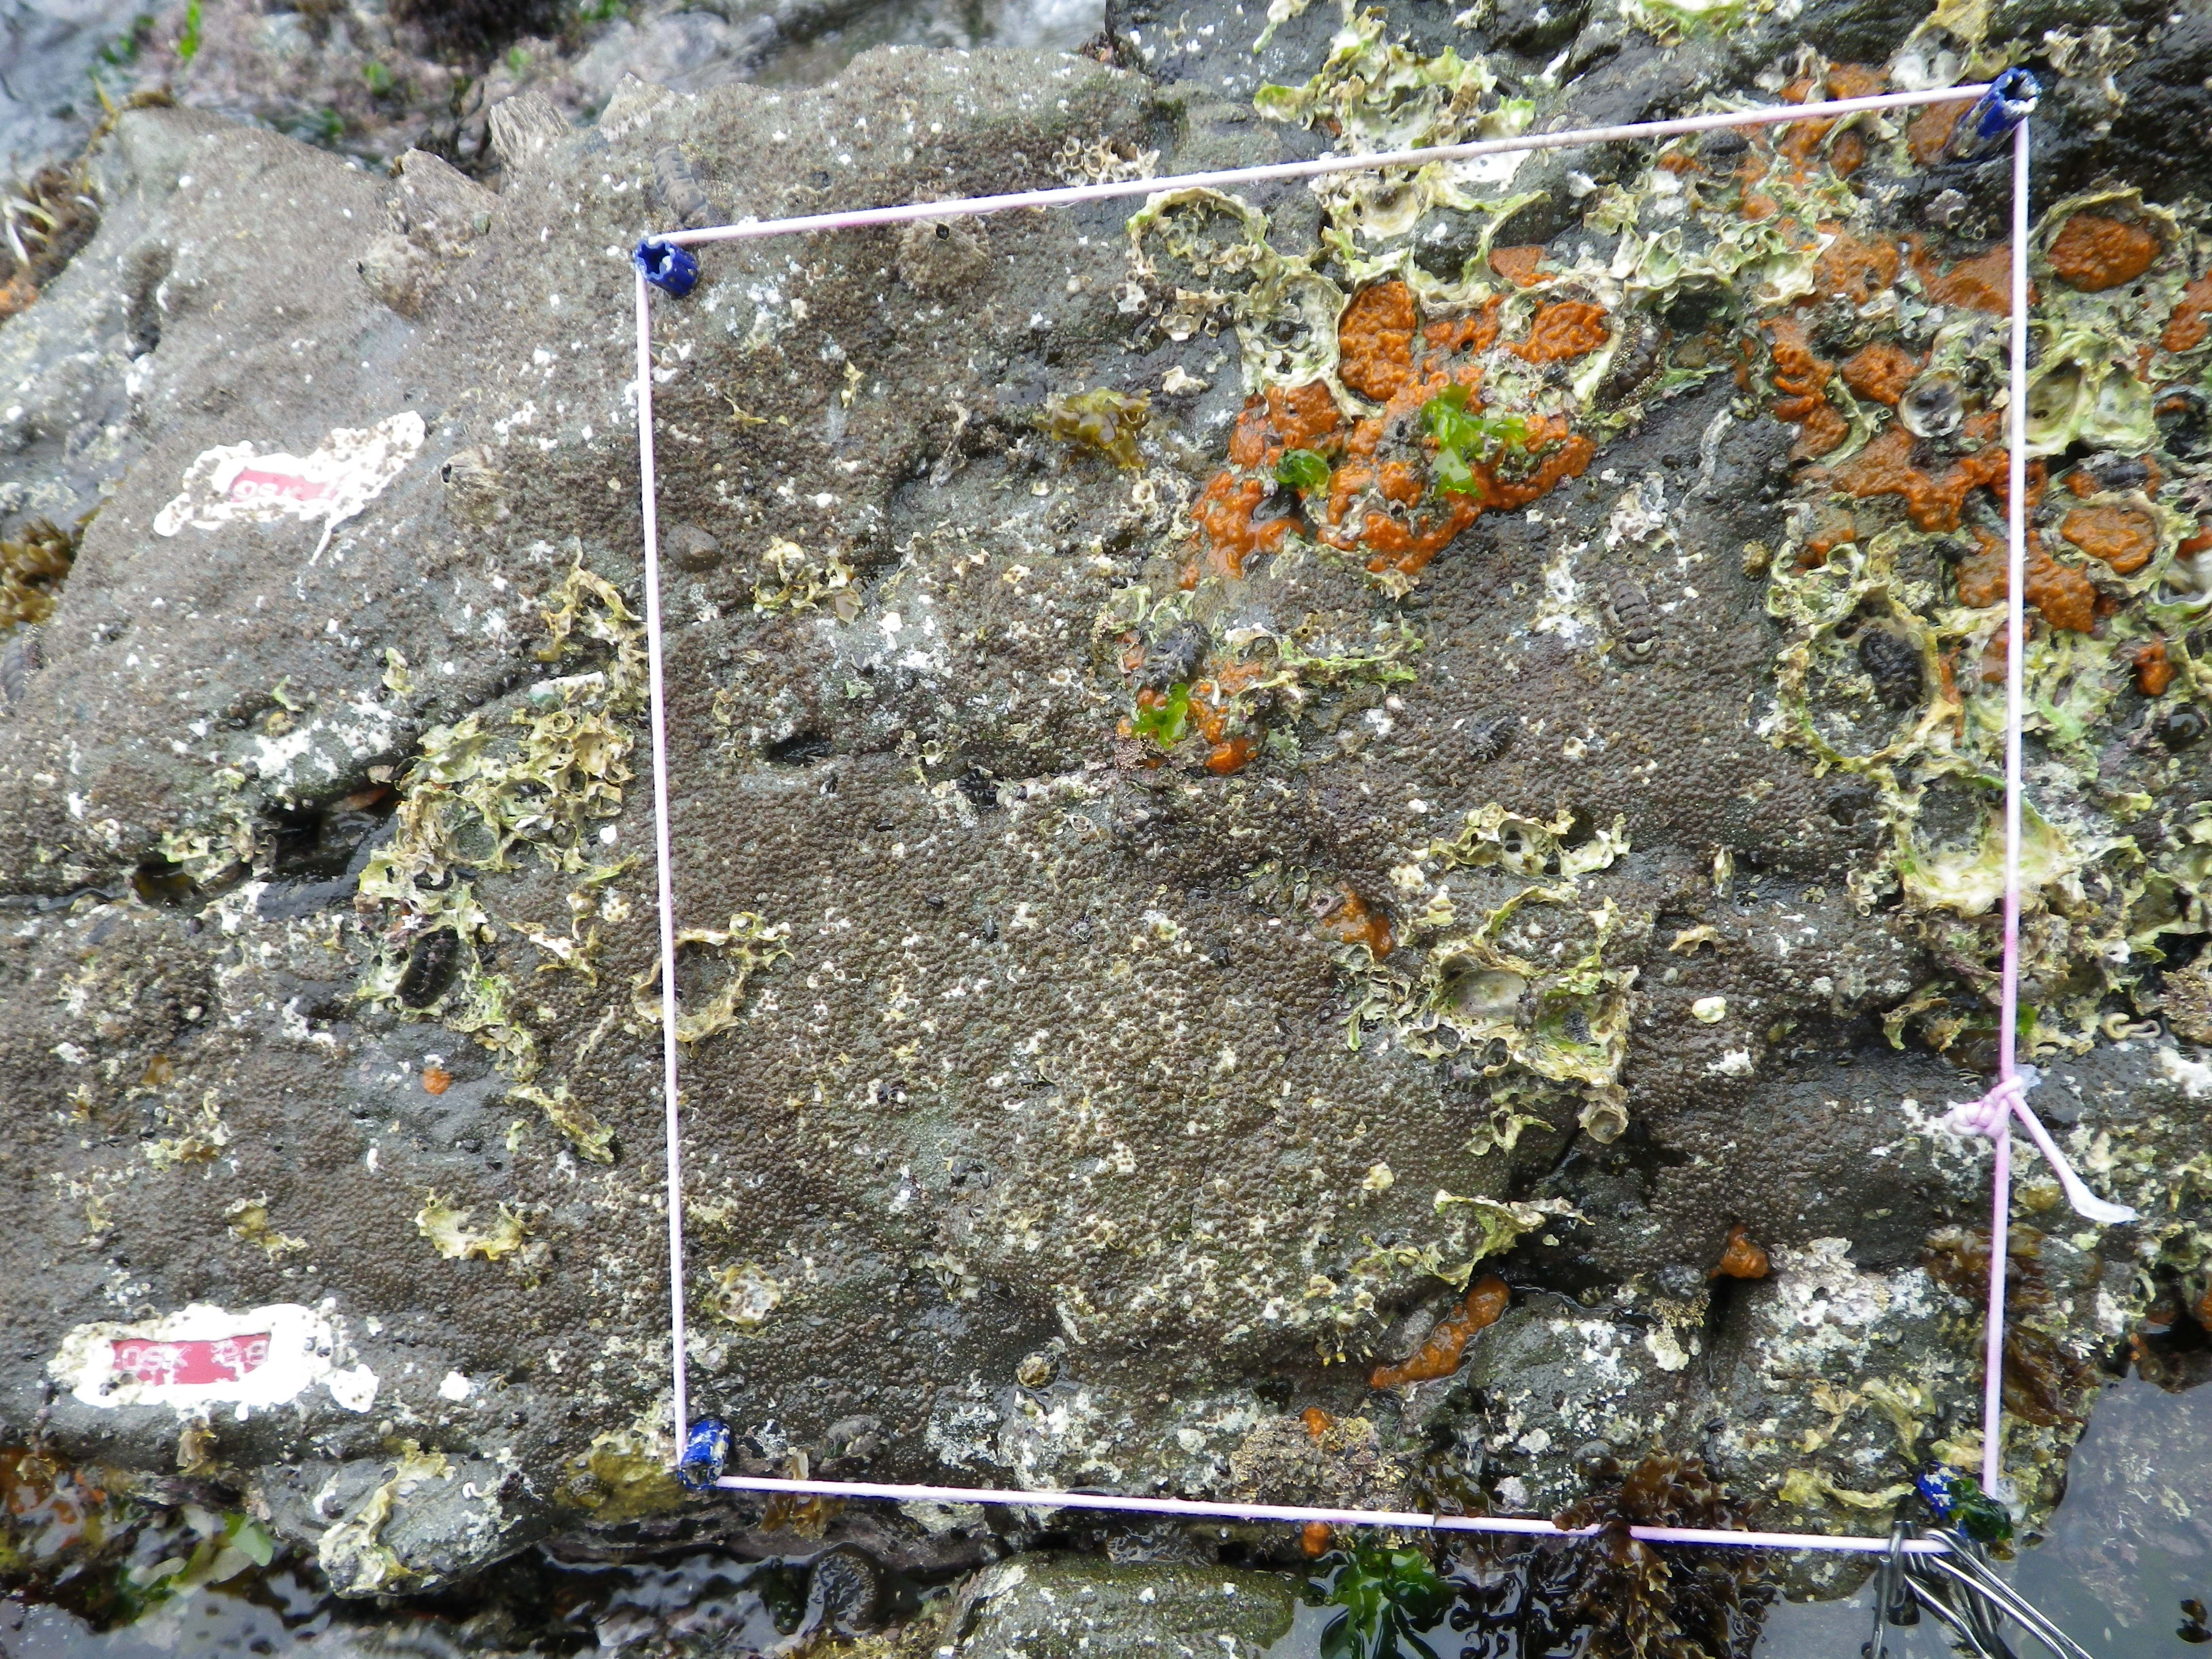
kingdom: Animalia
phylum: Arthropoda
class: Maxillopoda
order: Sessilia
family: Chthamalidae
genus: Chthamalus
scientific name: Chthamalus challengeri
